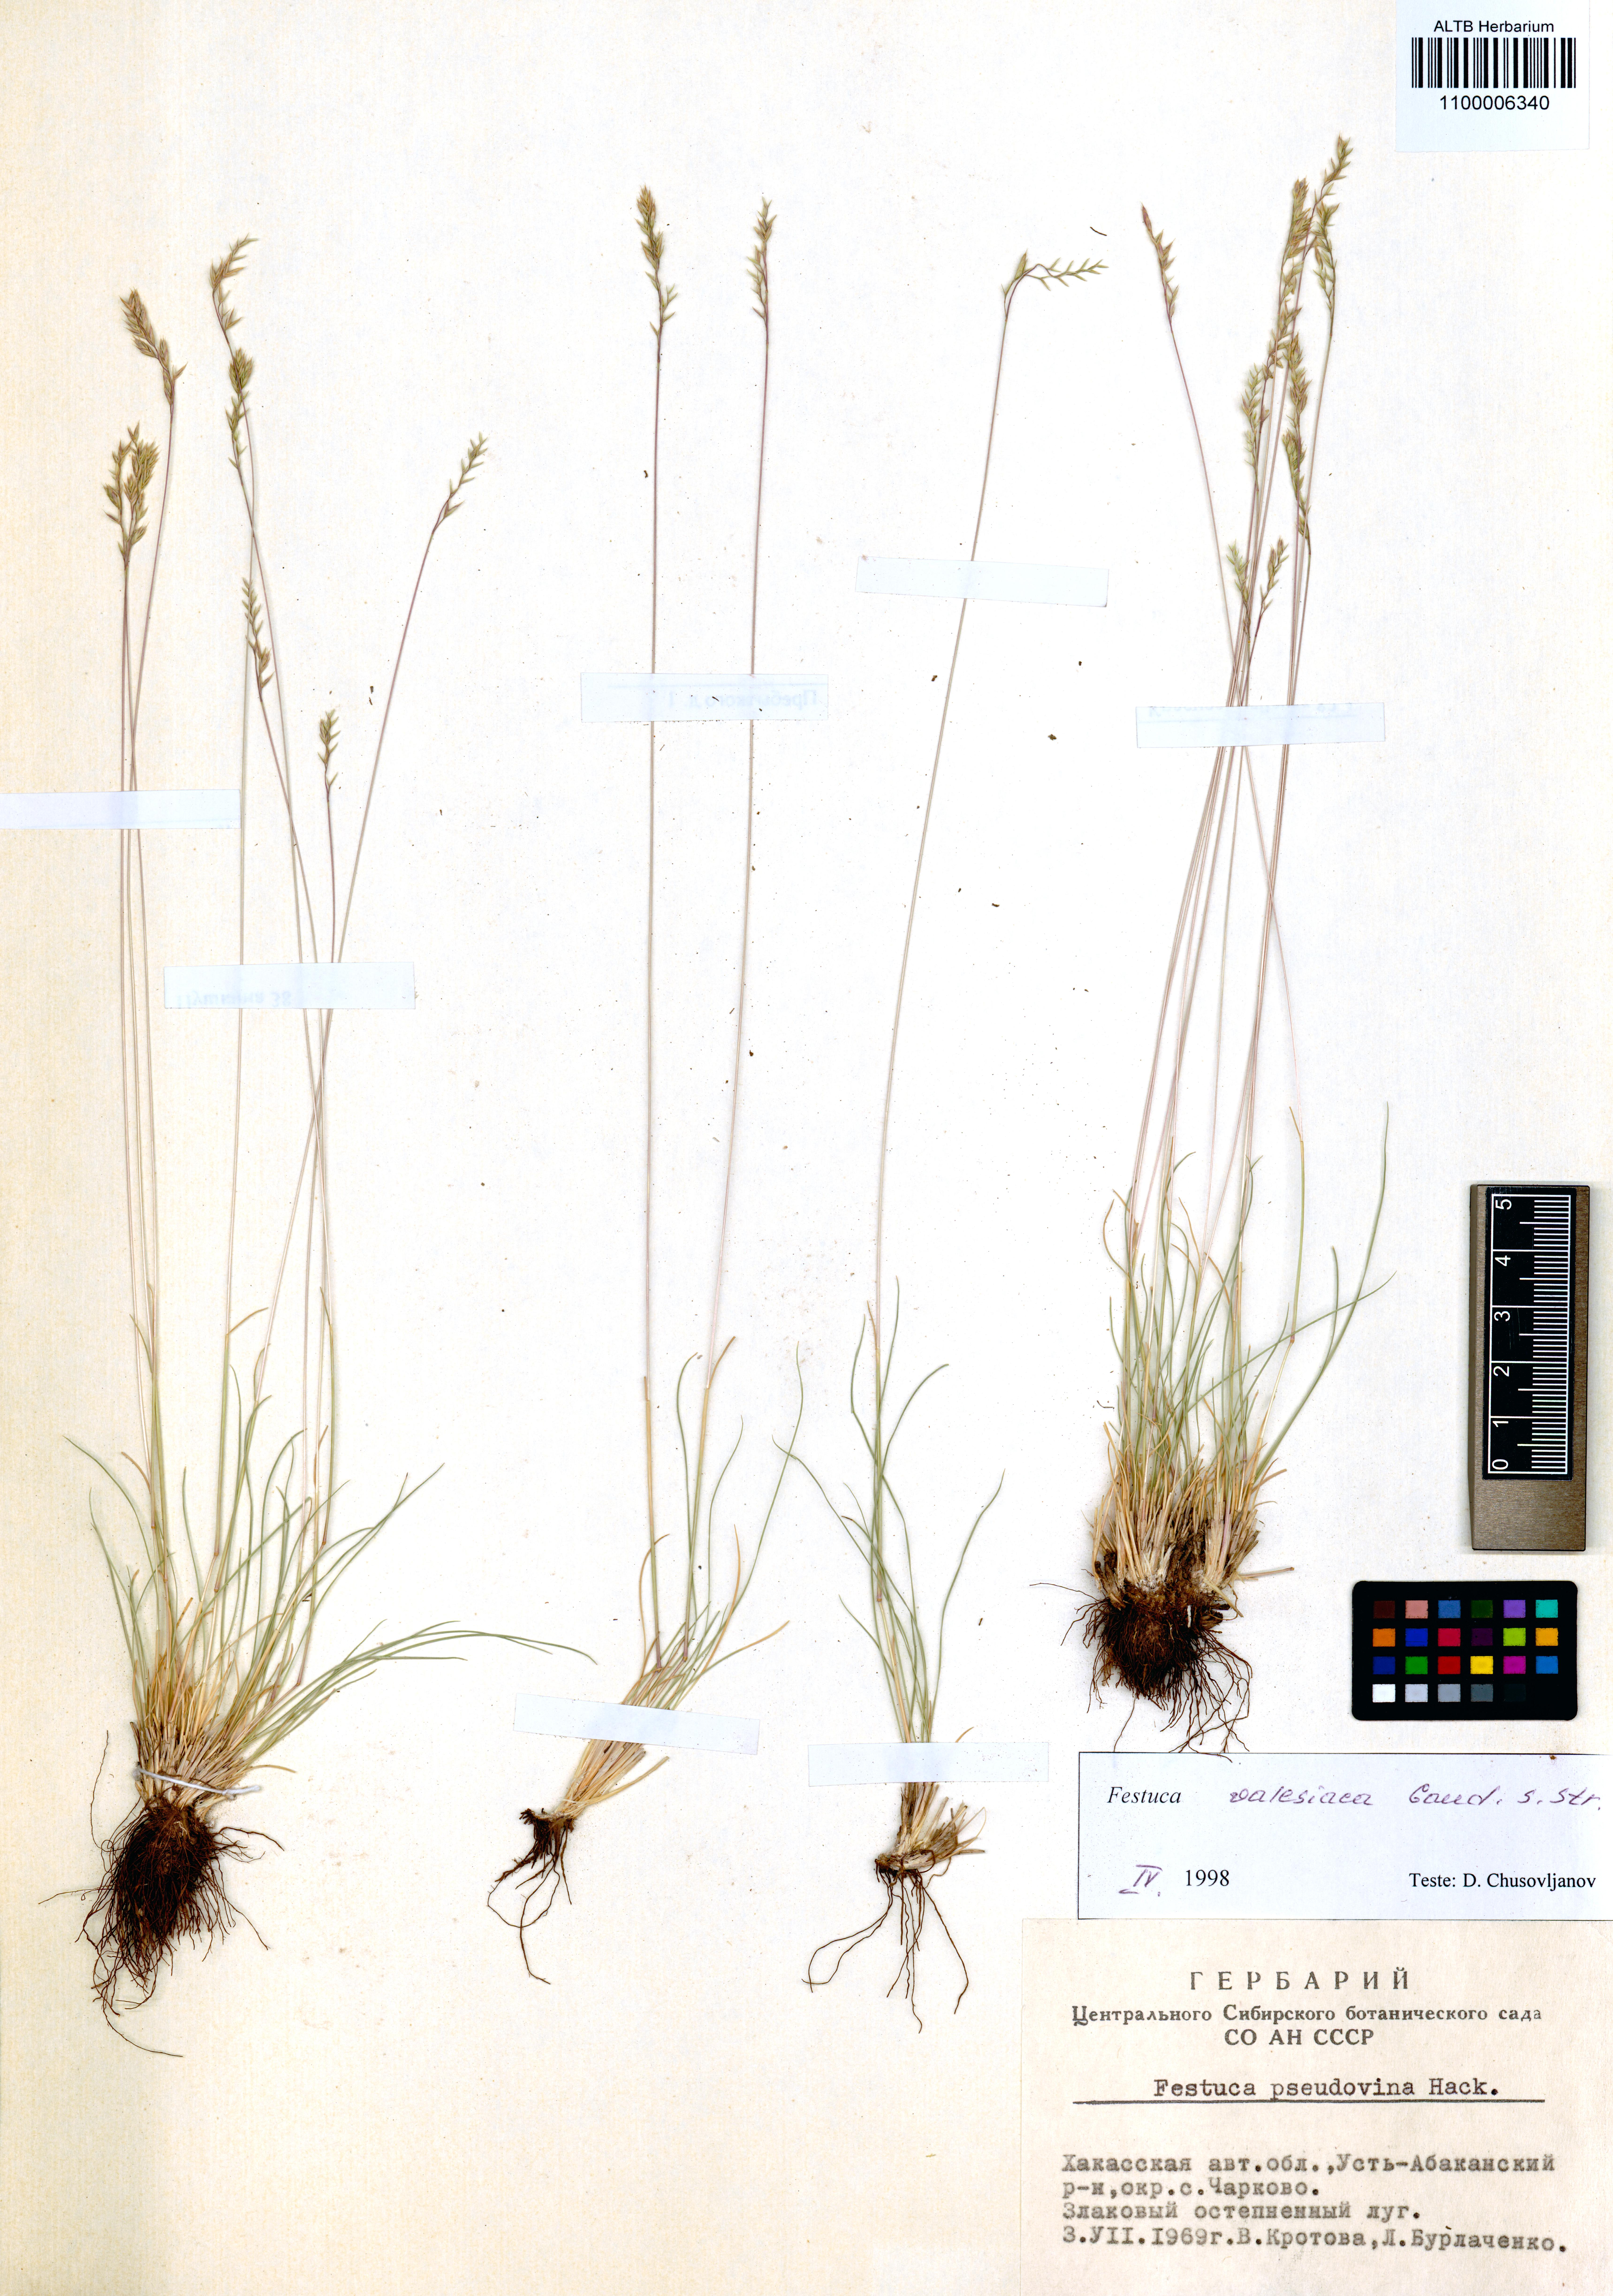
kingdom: Plantae
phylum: Tracheophyta
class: Liliopsida
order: Poales
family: Poaceae
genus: Festuca
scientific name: Festuca valesiaca
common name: Volga fescue
